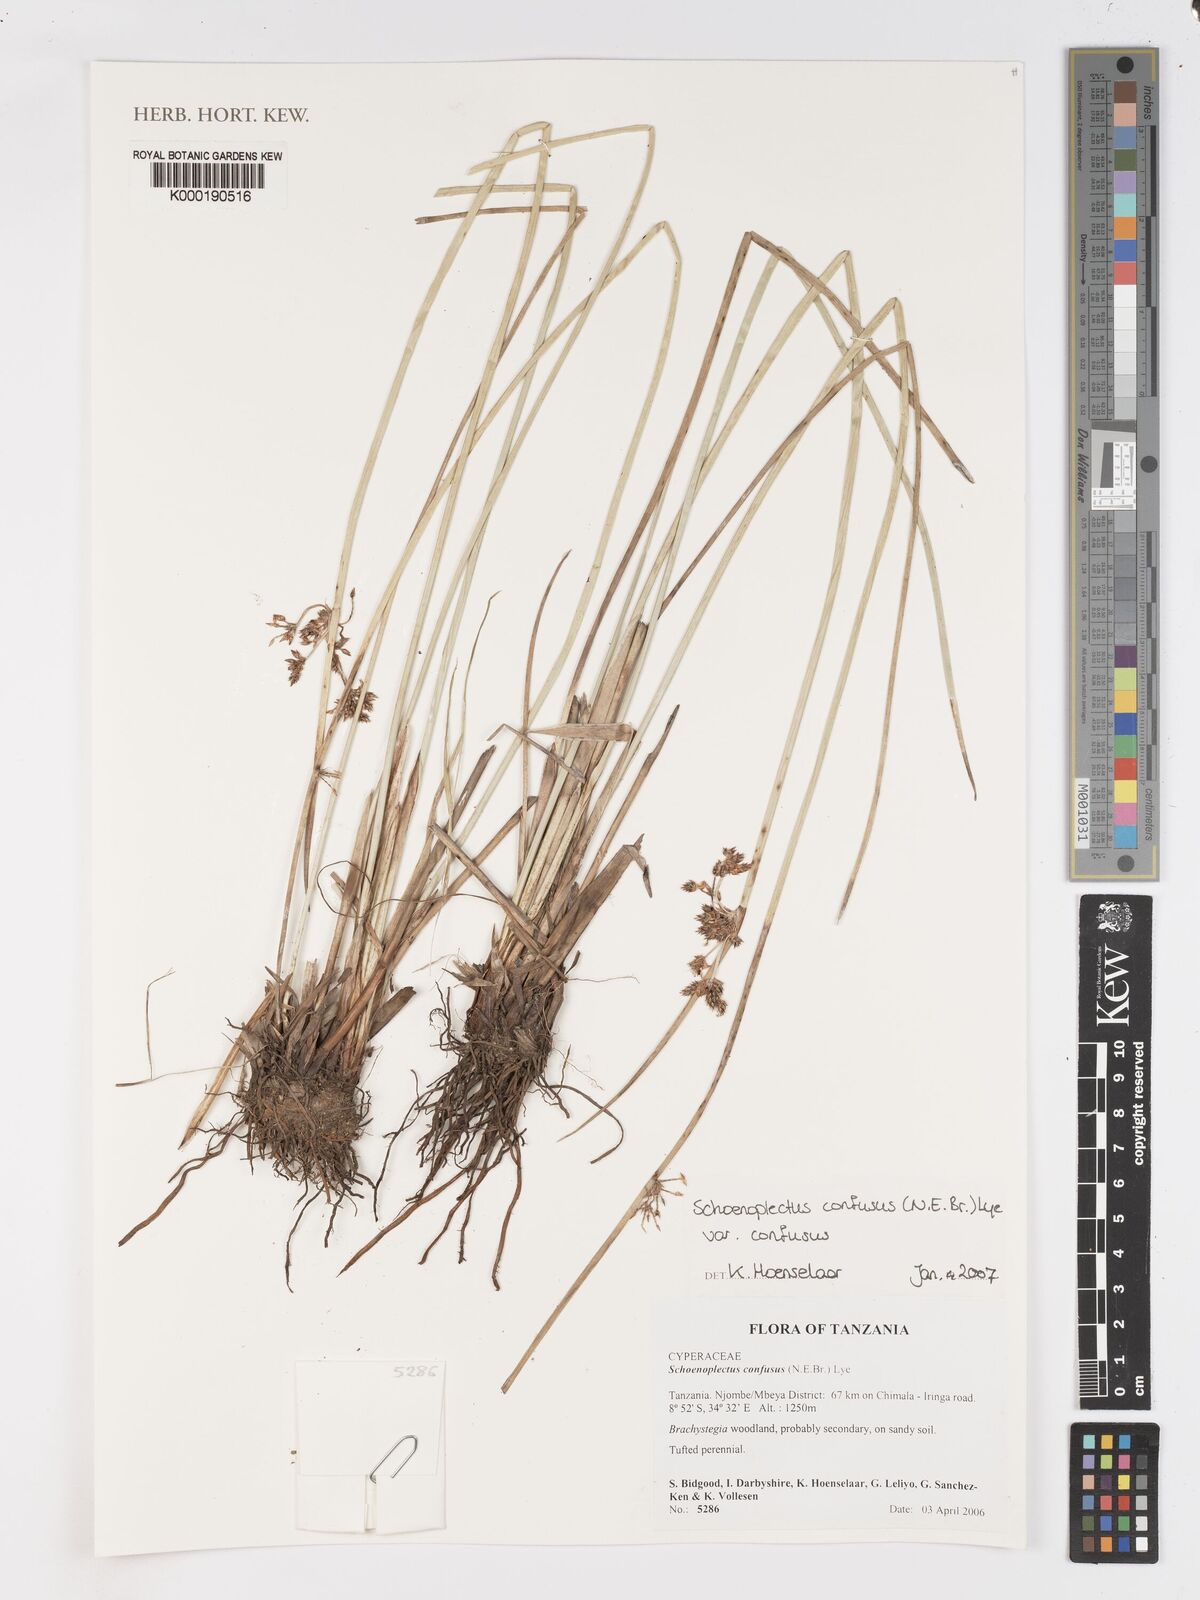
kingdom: Plantae
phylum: Tracheophyta
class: Liliopsida
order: Poales
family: Cyperaceae
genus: Schoenoplectiella
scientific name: Schoenoplectiella confusa
